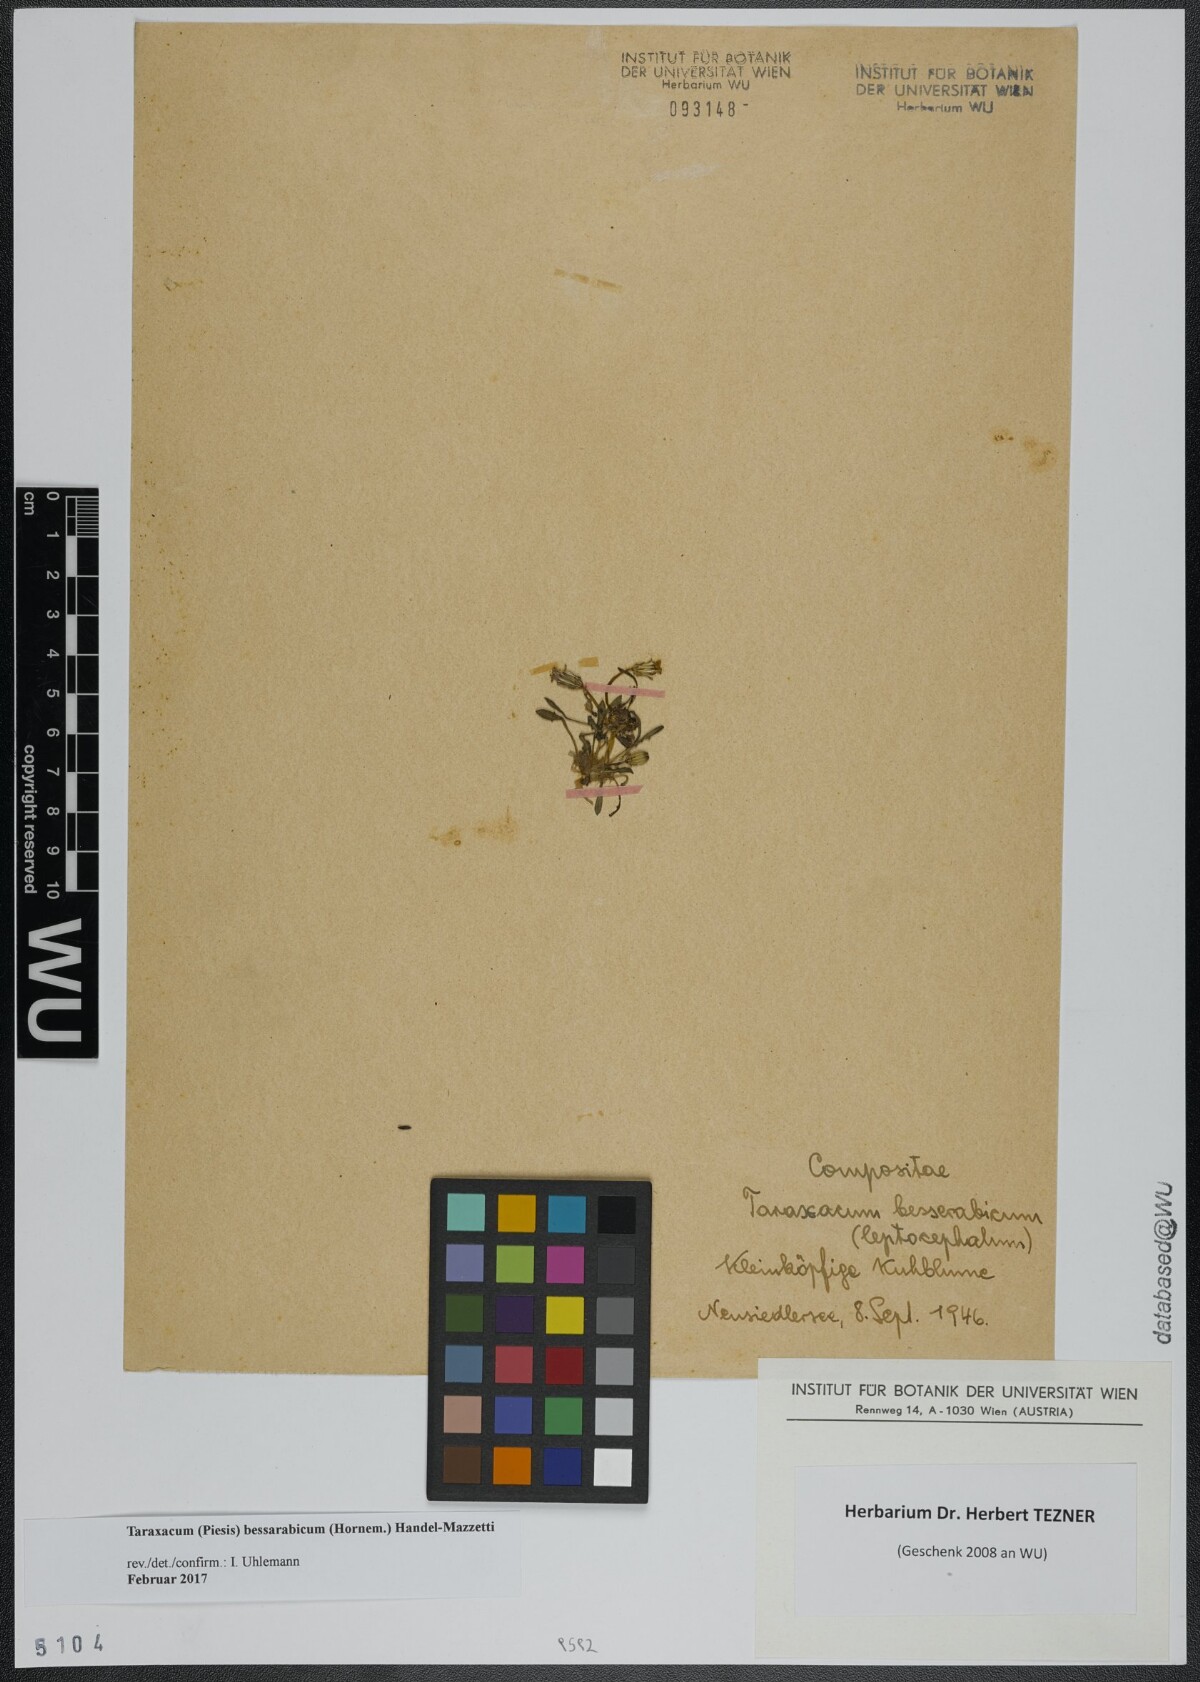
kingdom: Plantae
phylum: Tracheophyta
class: Magnoliopsida
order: Asterales
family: Asteraceae
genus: Taraxacum
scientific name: Taraxacum bessarabicum
